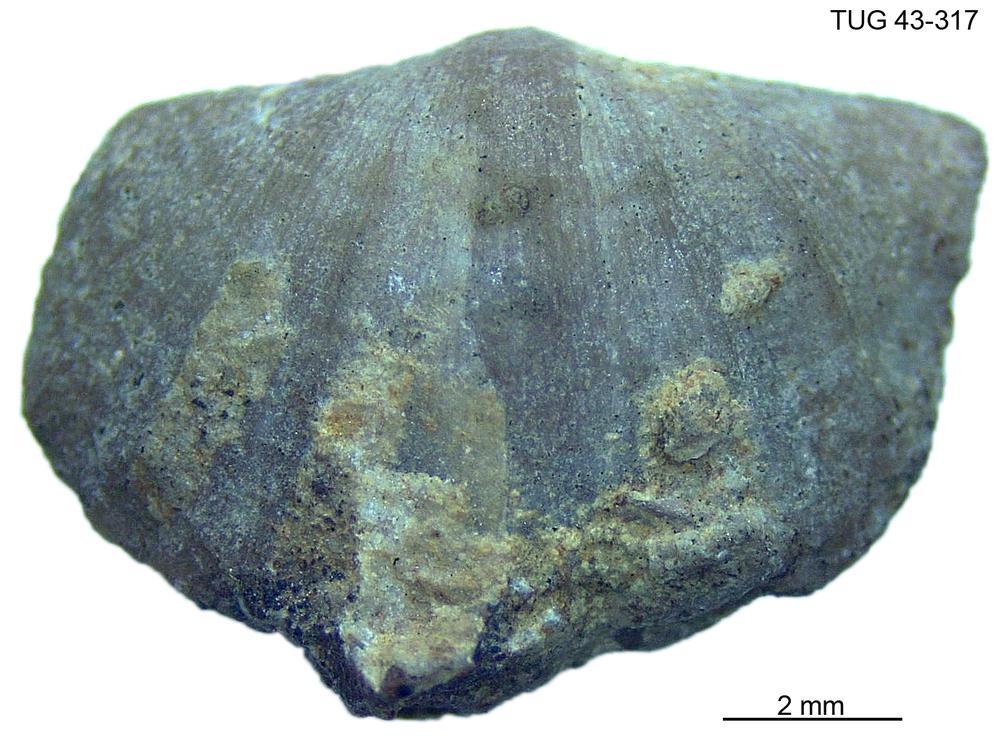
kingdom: Animalia
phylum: Brachiopoda
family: Oldhaminidae
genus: Eoplectodonta
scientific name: Eoplectodonta
